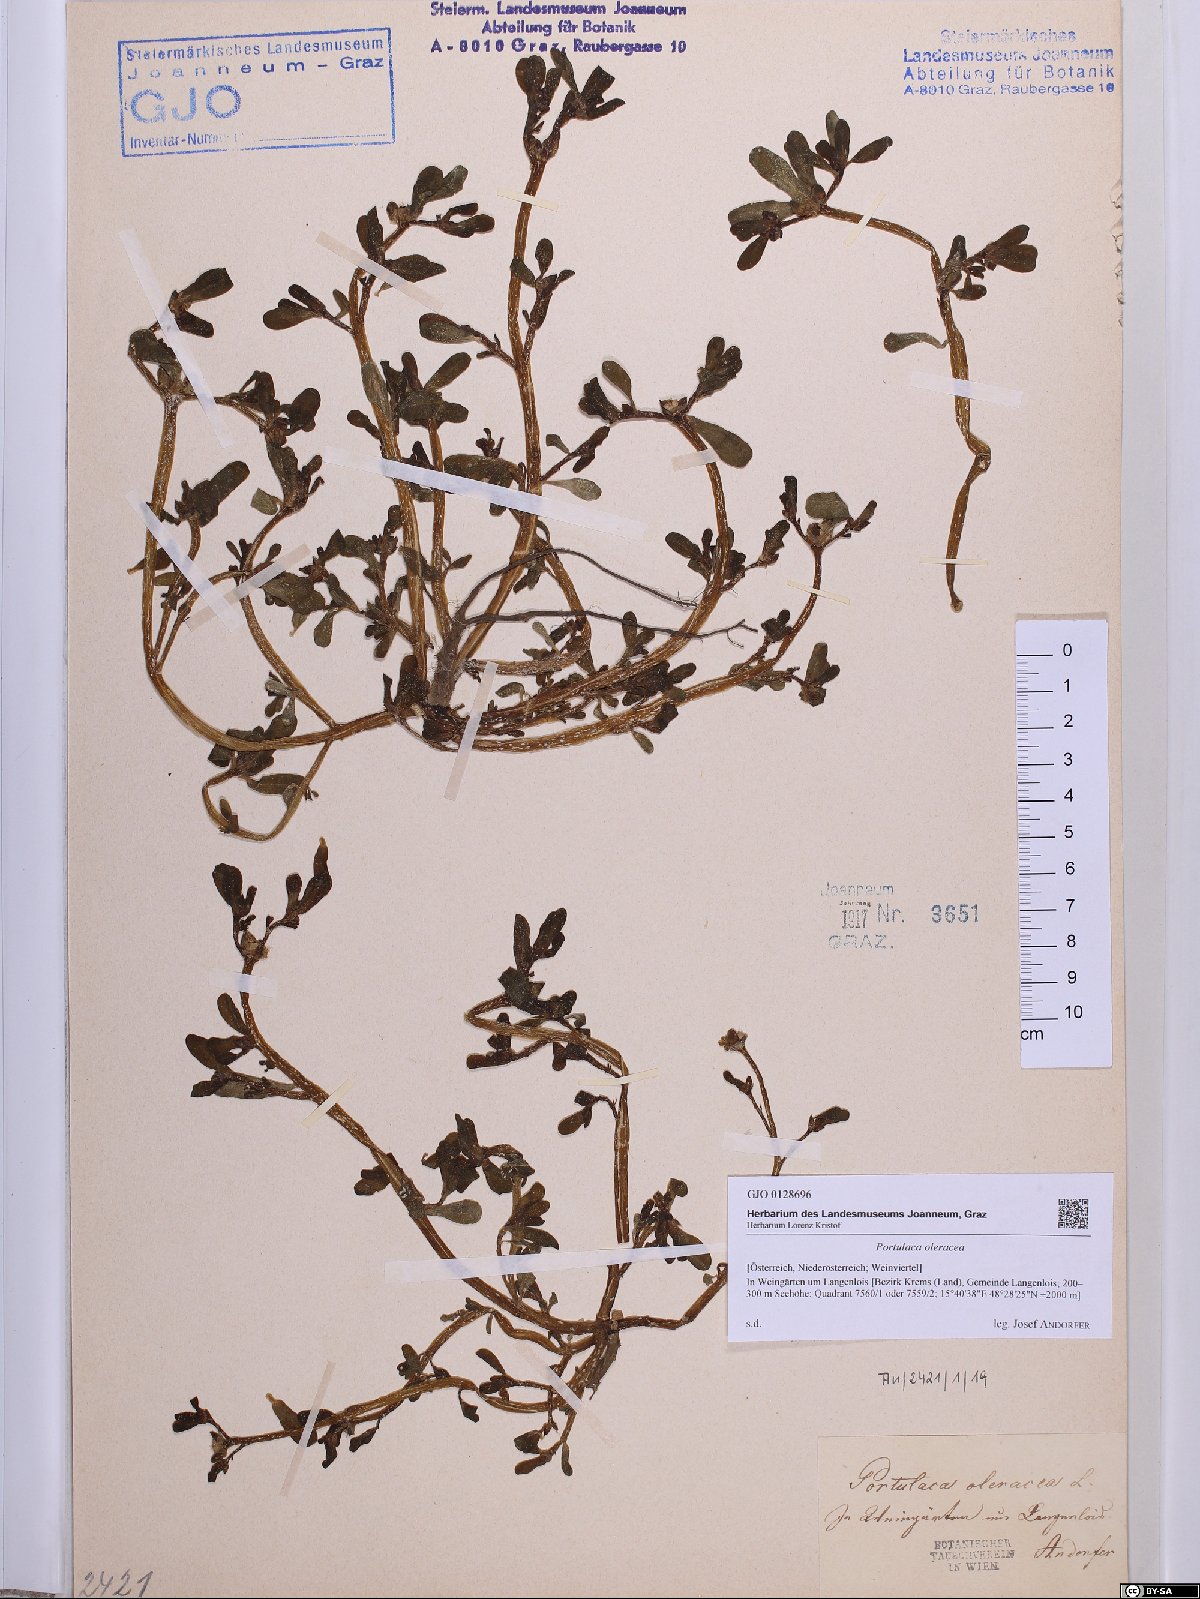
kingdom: Plantae
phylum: Tracheophyta
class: Magnoliopsida
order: Caryophyllales
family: Portulacaceae
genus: Portulaca
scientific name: Portulaca oleracea
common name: Common purslane
